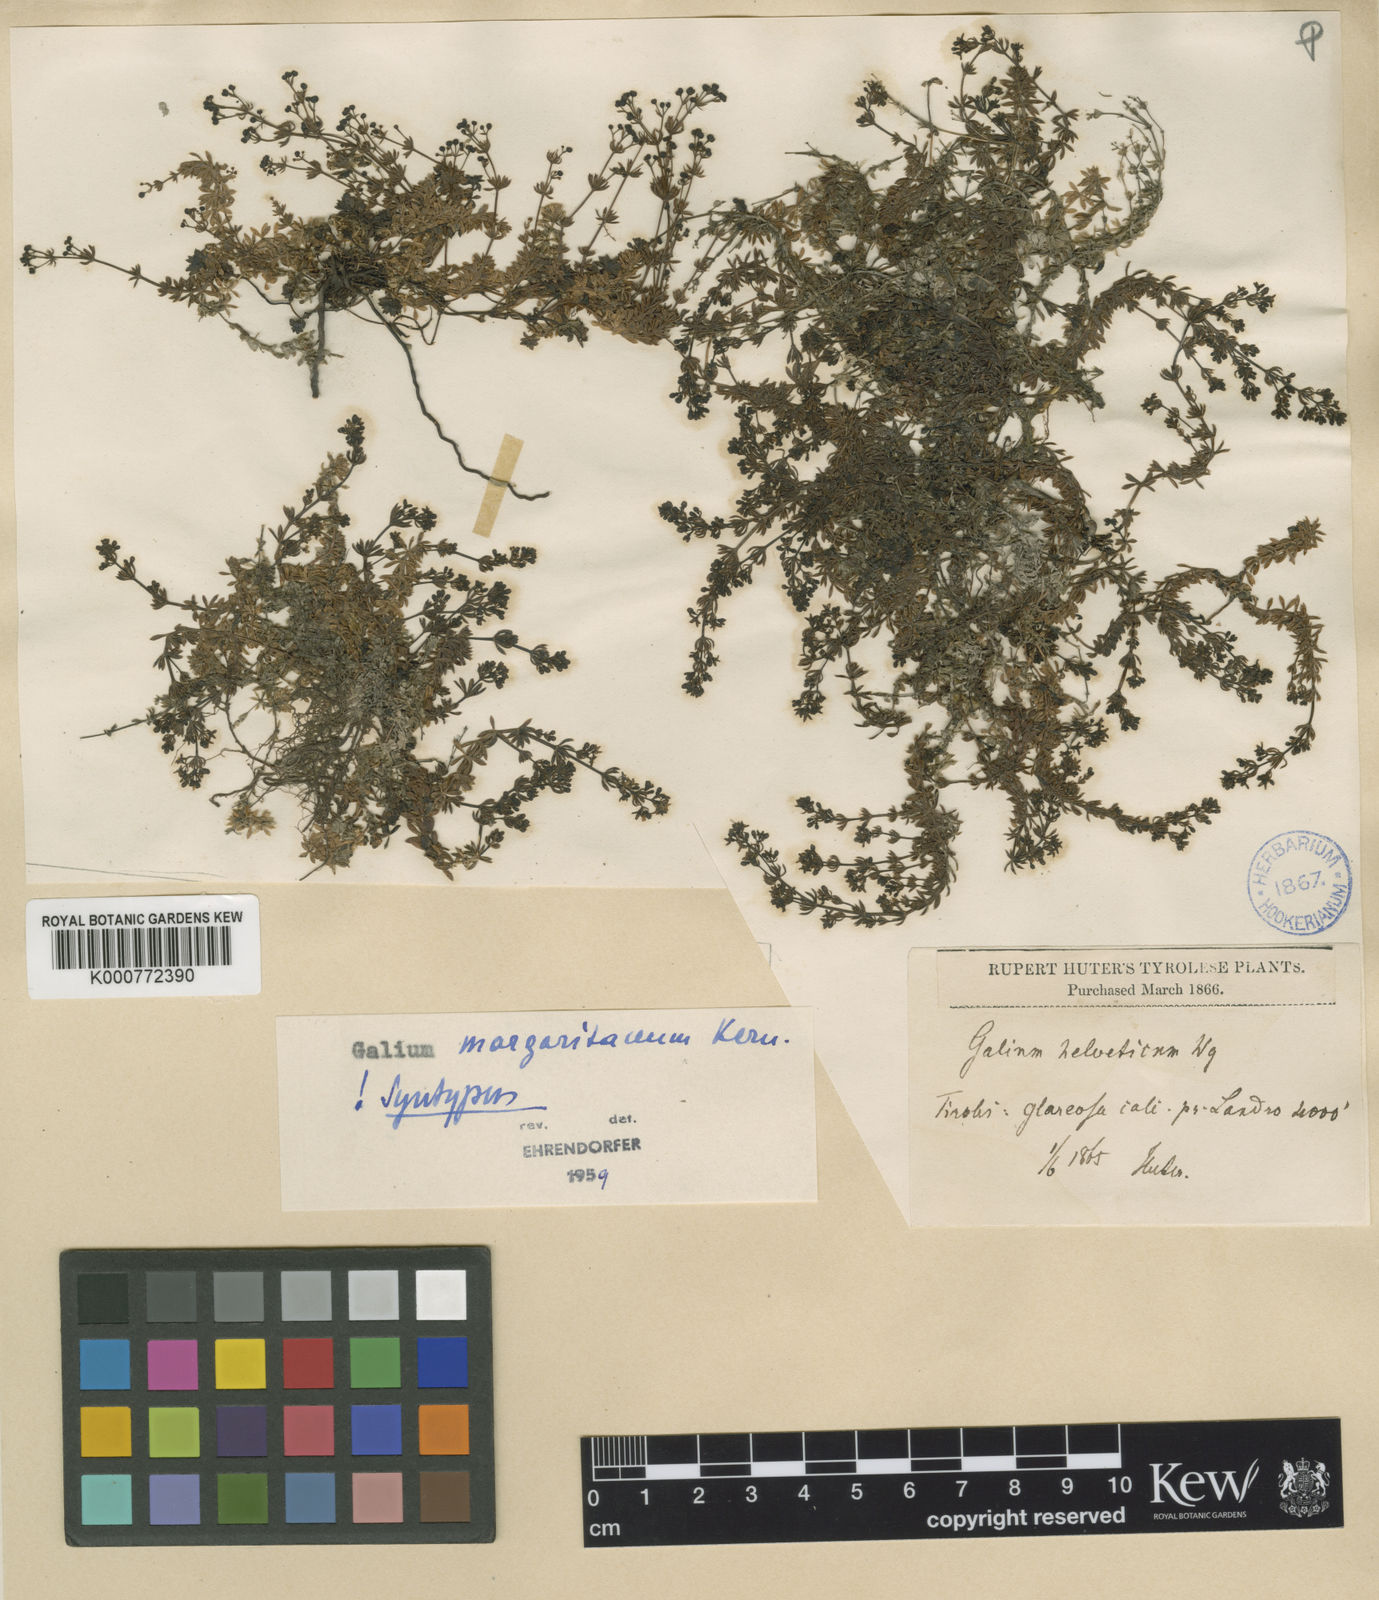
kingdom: Plantae
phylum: Tracheophyta
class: Magnoliopsida
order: Gentianales
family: Rubiaceae
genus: Galium
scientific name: Galium margaritaceum
